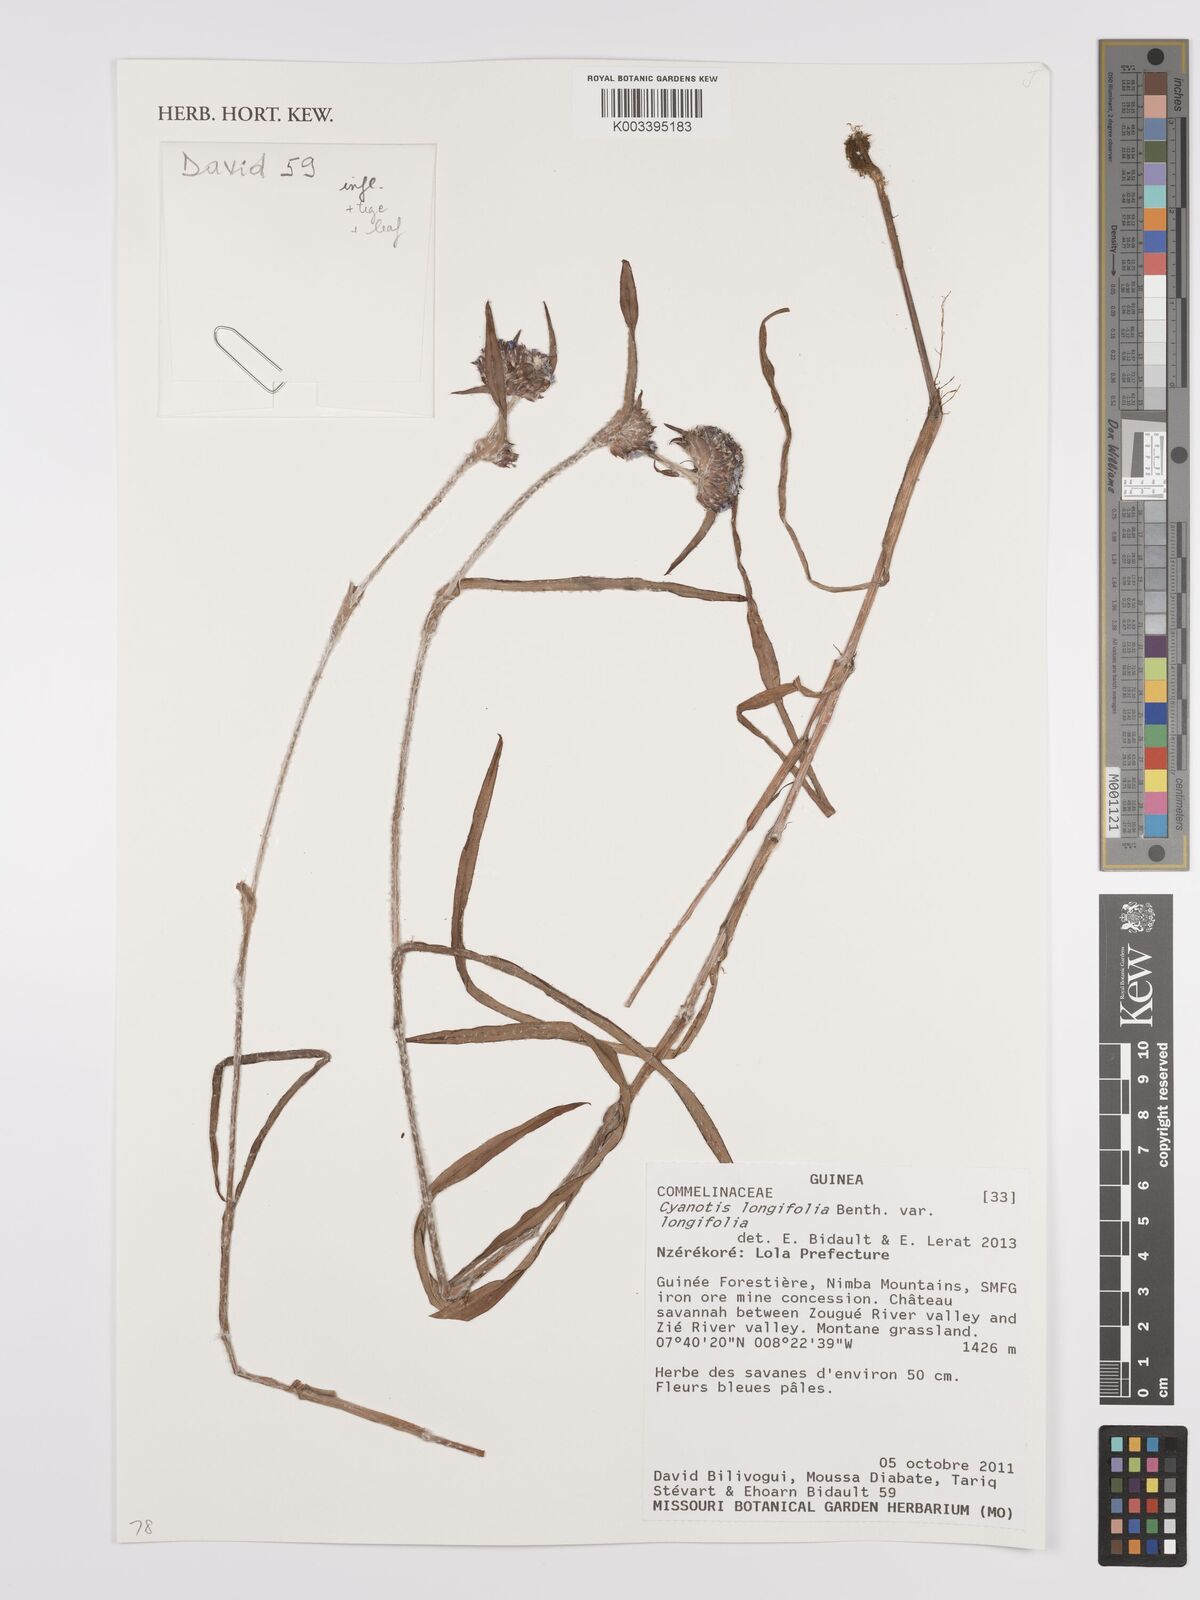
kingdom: Plantae
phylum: Tracheophyta
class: Liliopsida
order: Commelinales
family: Commelinaceae
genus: Cyanotis
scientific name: Cyanotis
